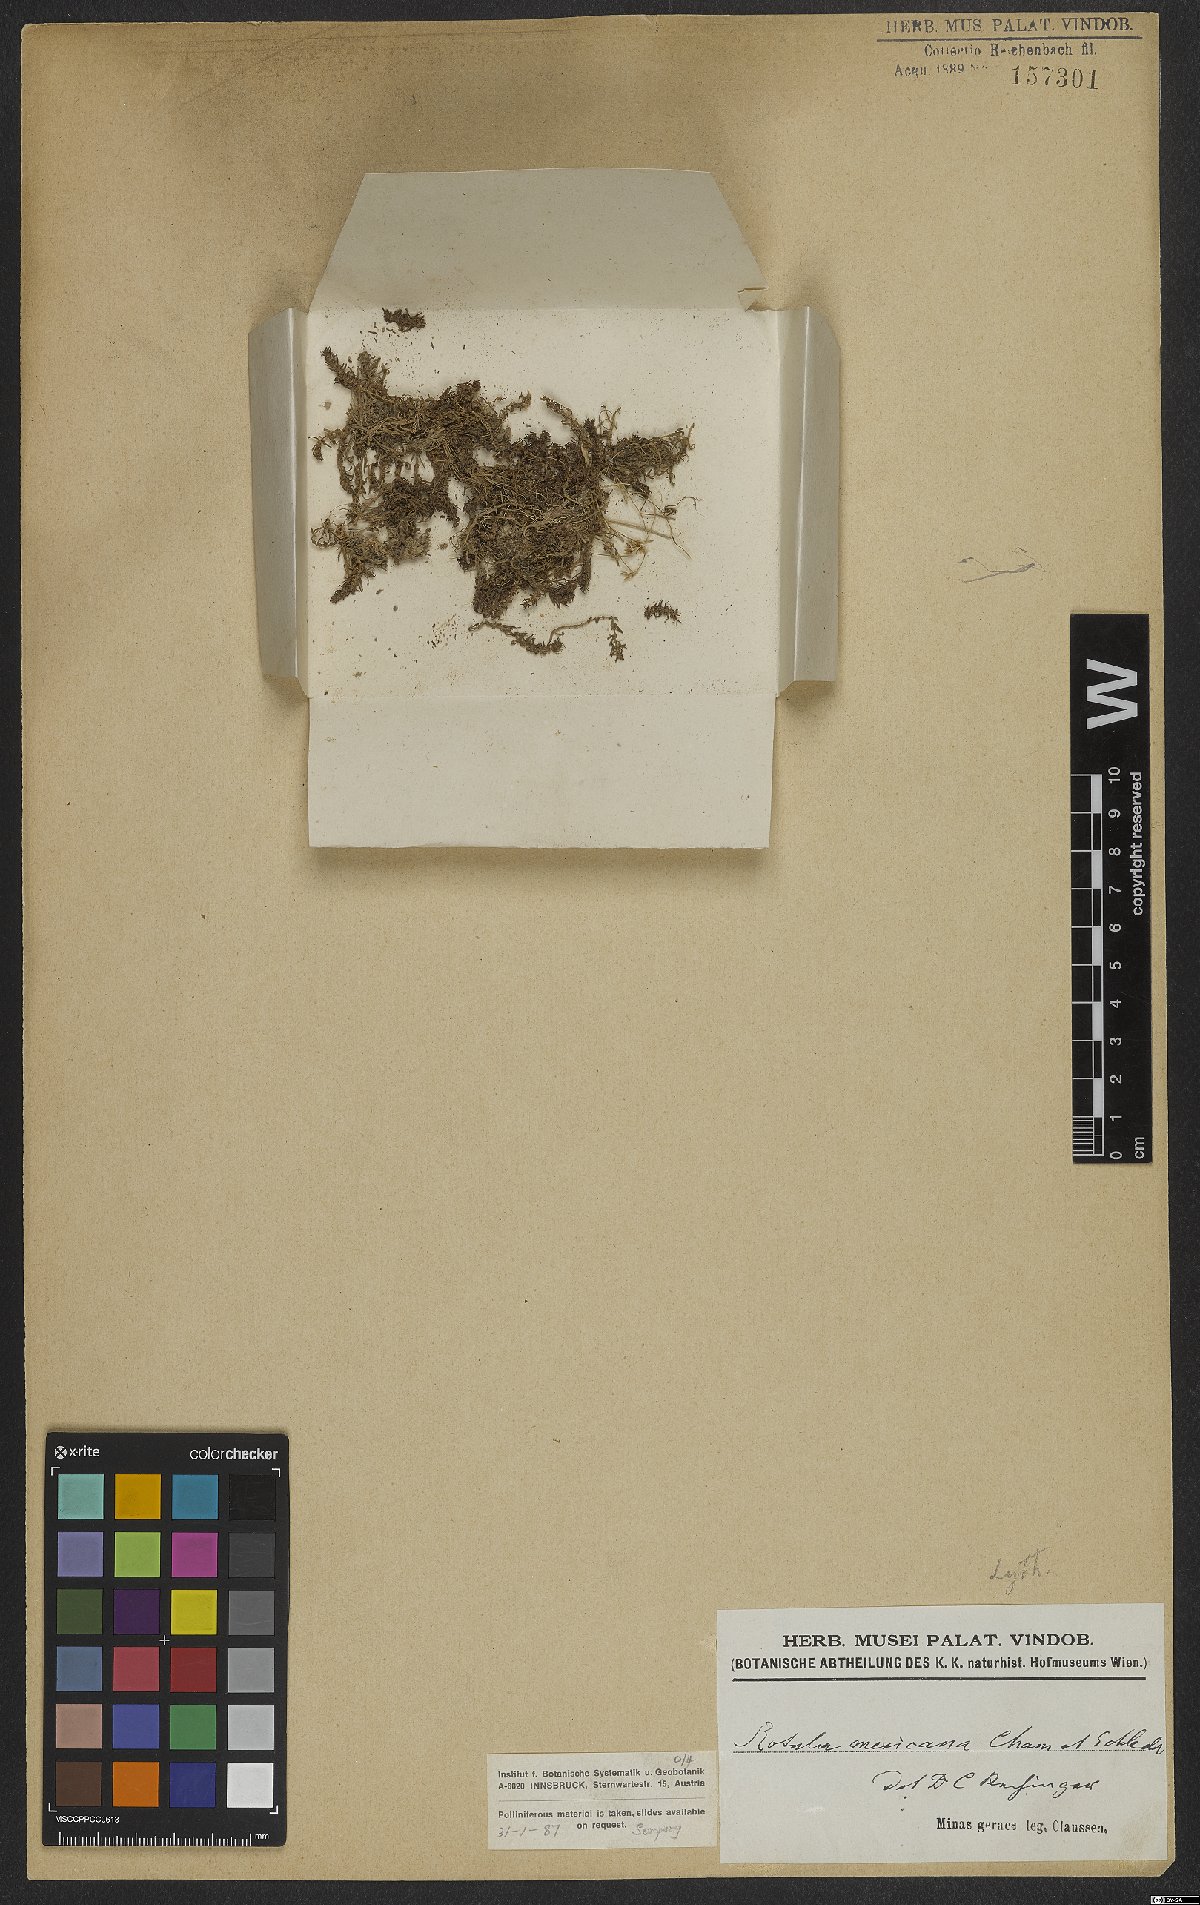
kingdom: Plantae
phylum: Tracheophyta
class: Magnoliopsida
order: Myrtales
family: Lythraceae
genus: Rotala
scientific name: Rotala mexicana
